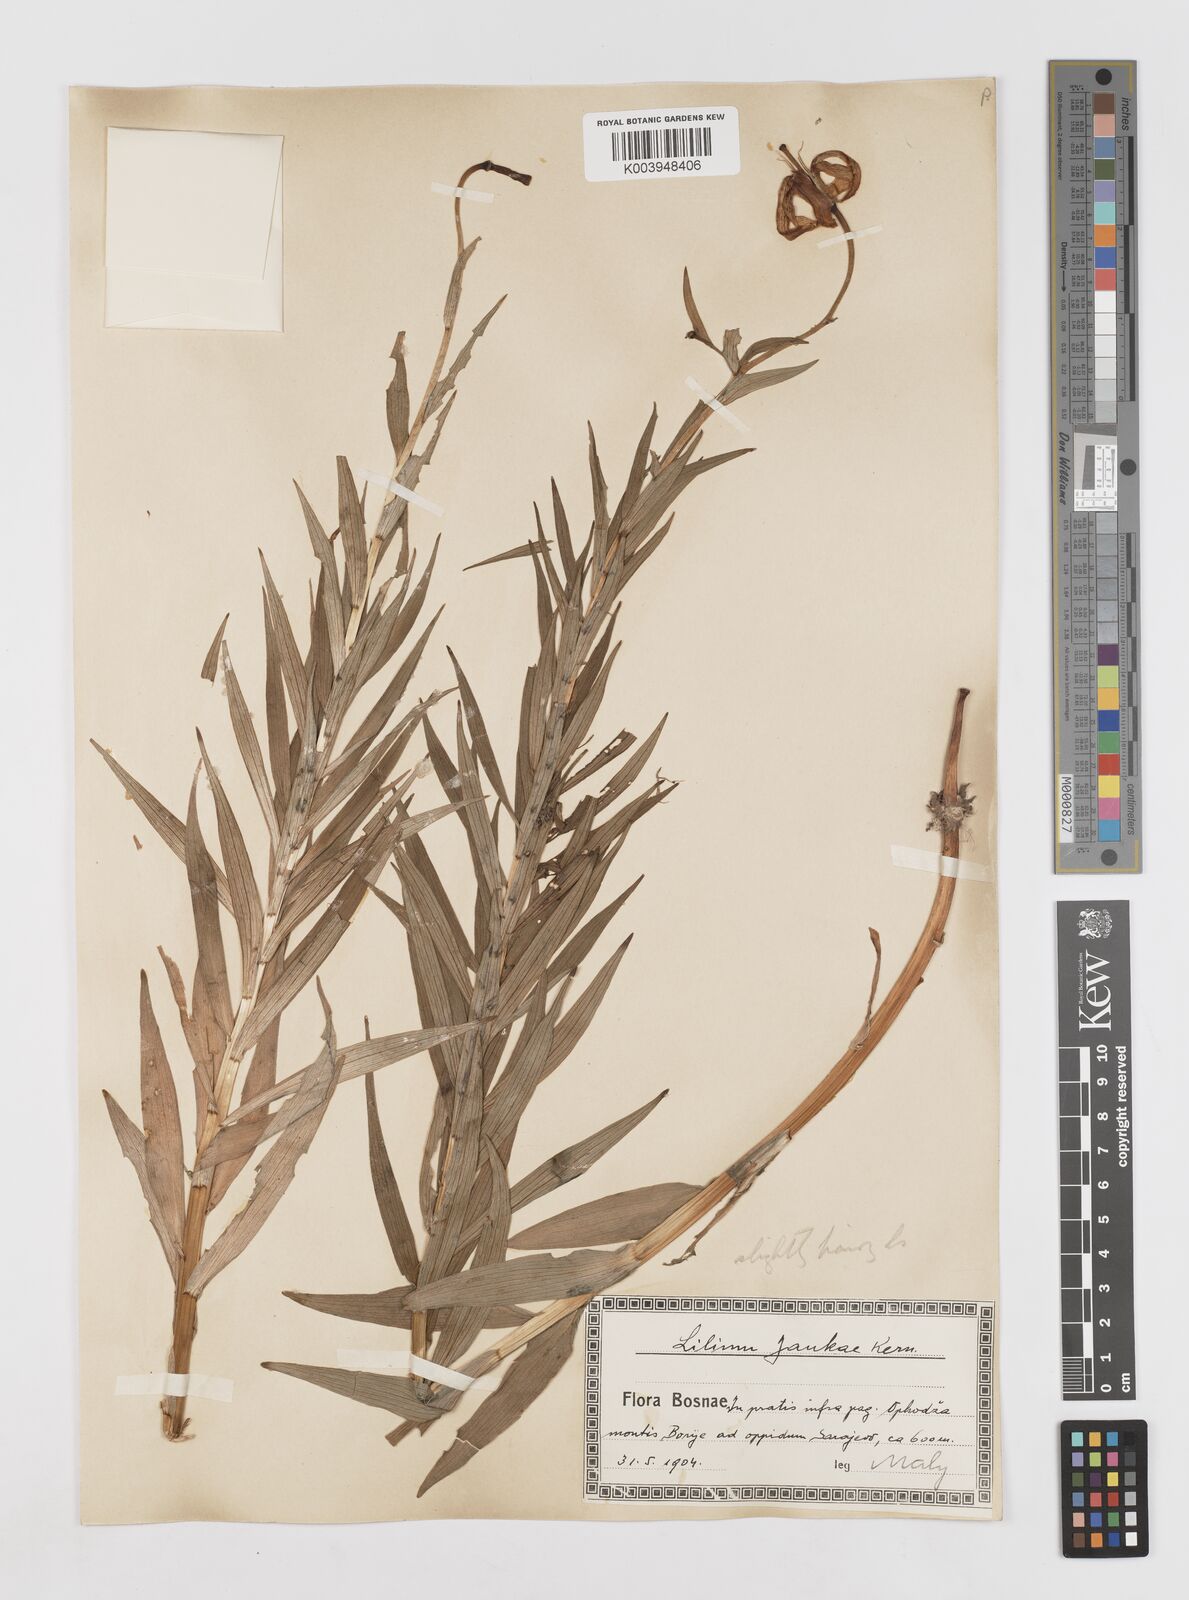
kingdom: Plantae
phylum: Tracheophyta
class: Liliopsida
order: Liliales
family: Liliaceae
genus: Lilium
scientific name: Lilium jankae
